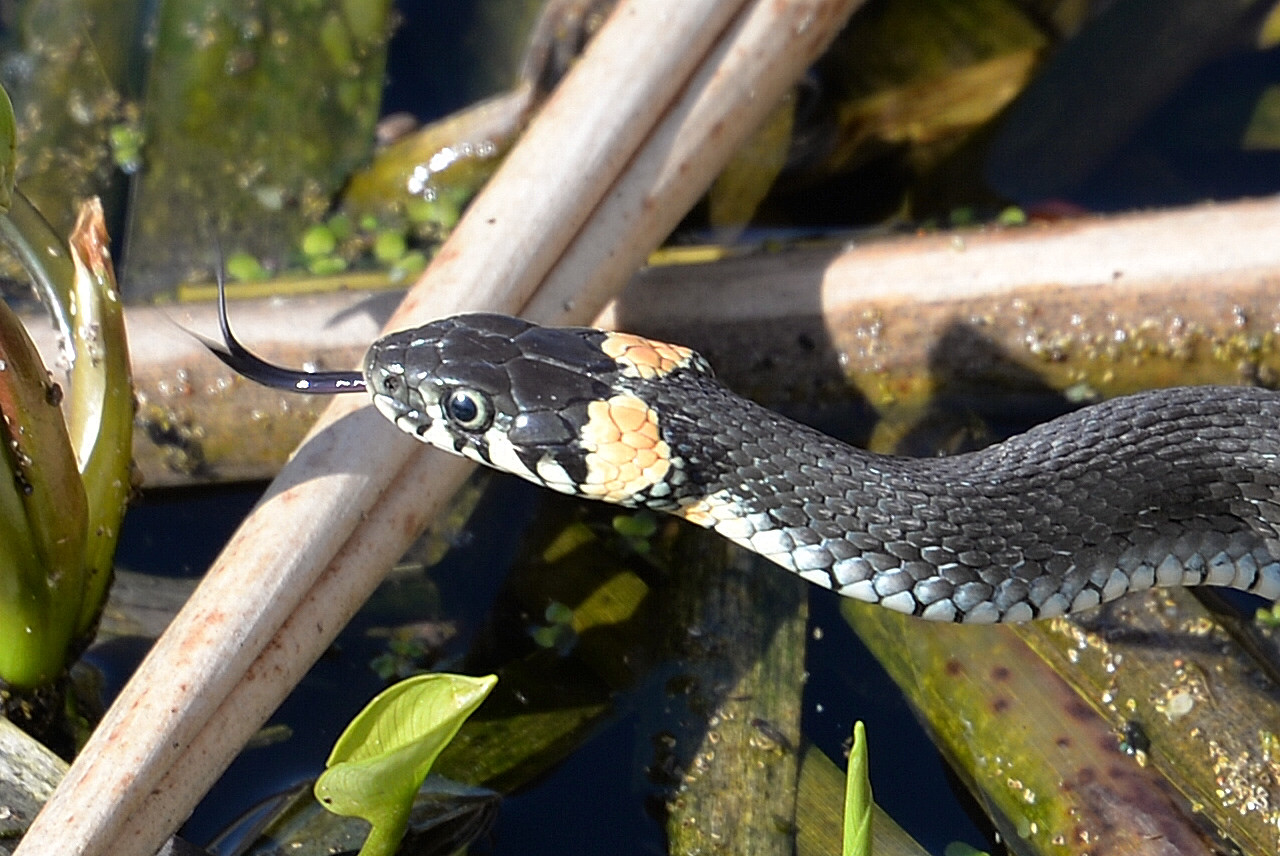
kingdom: Animalia
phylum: Chordata
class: Squamata
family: Colubridae
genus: Natrix
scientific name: Natrix natrix
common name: Grass snake
